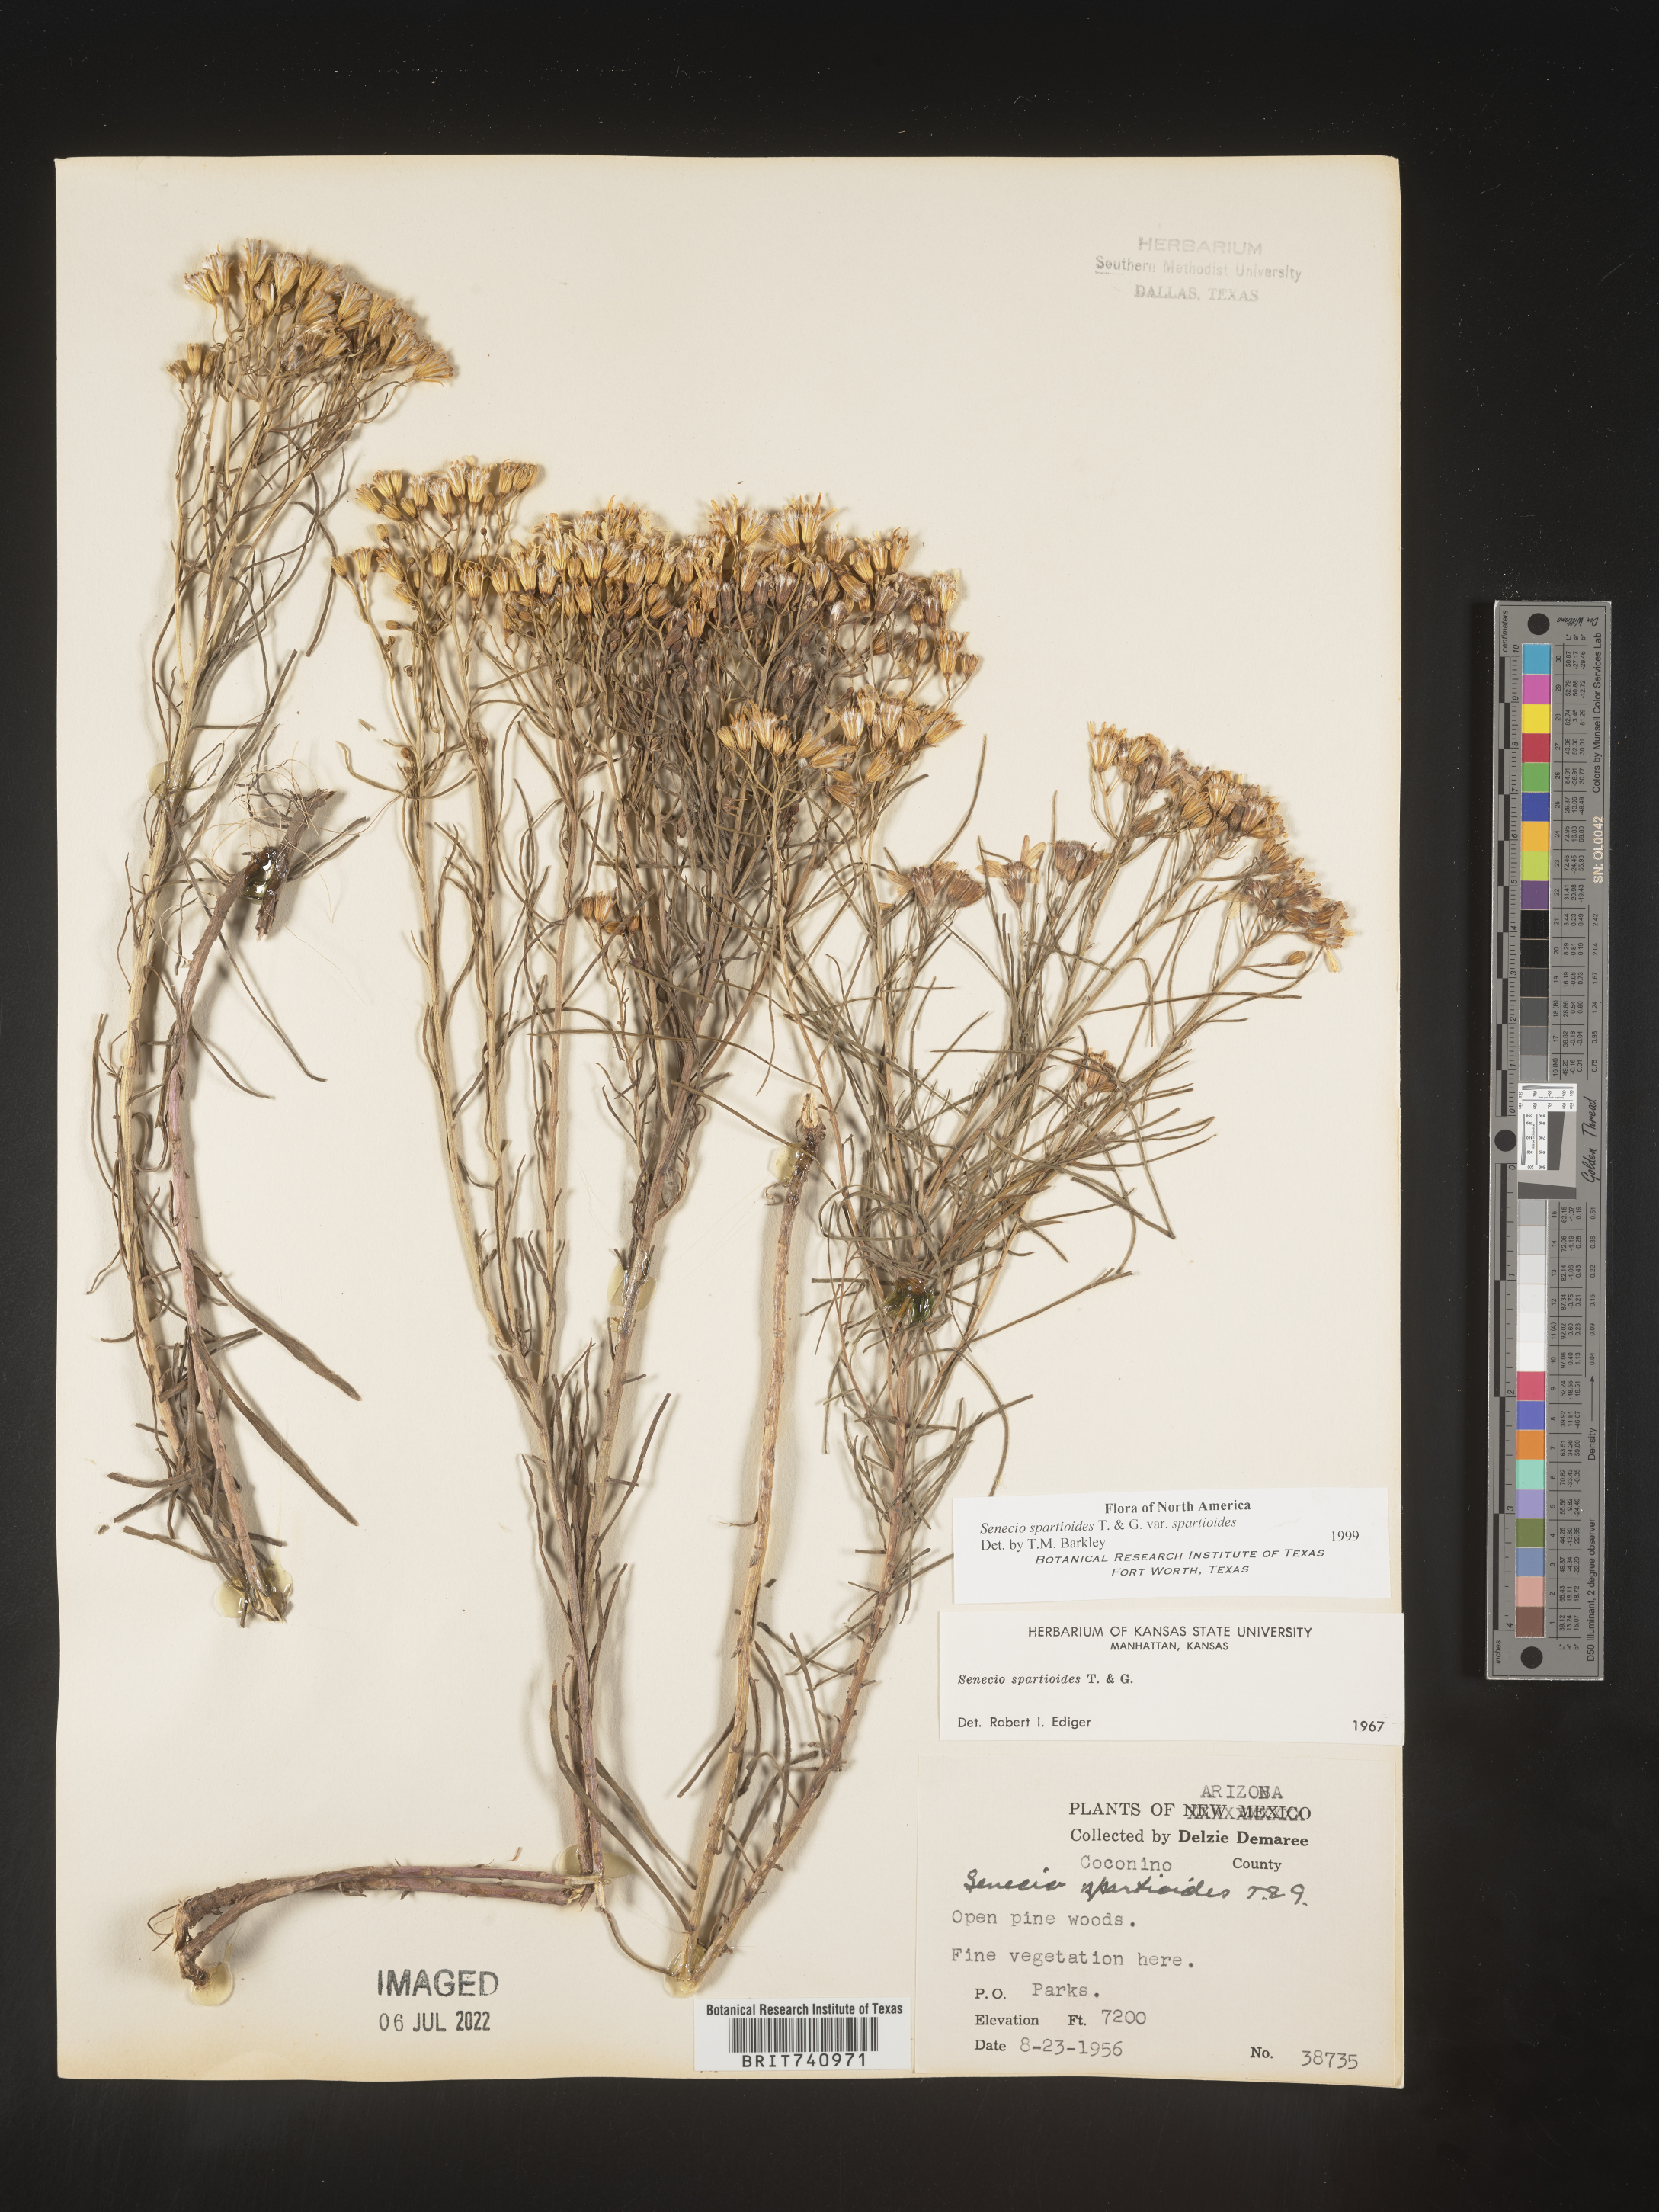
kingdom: Plantae
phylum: Tracheophyta
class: Magnoliopsida
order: Asterales
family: Asteraceae
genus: Senecio
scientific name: Senecio spartioides
